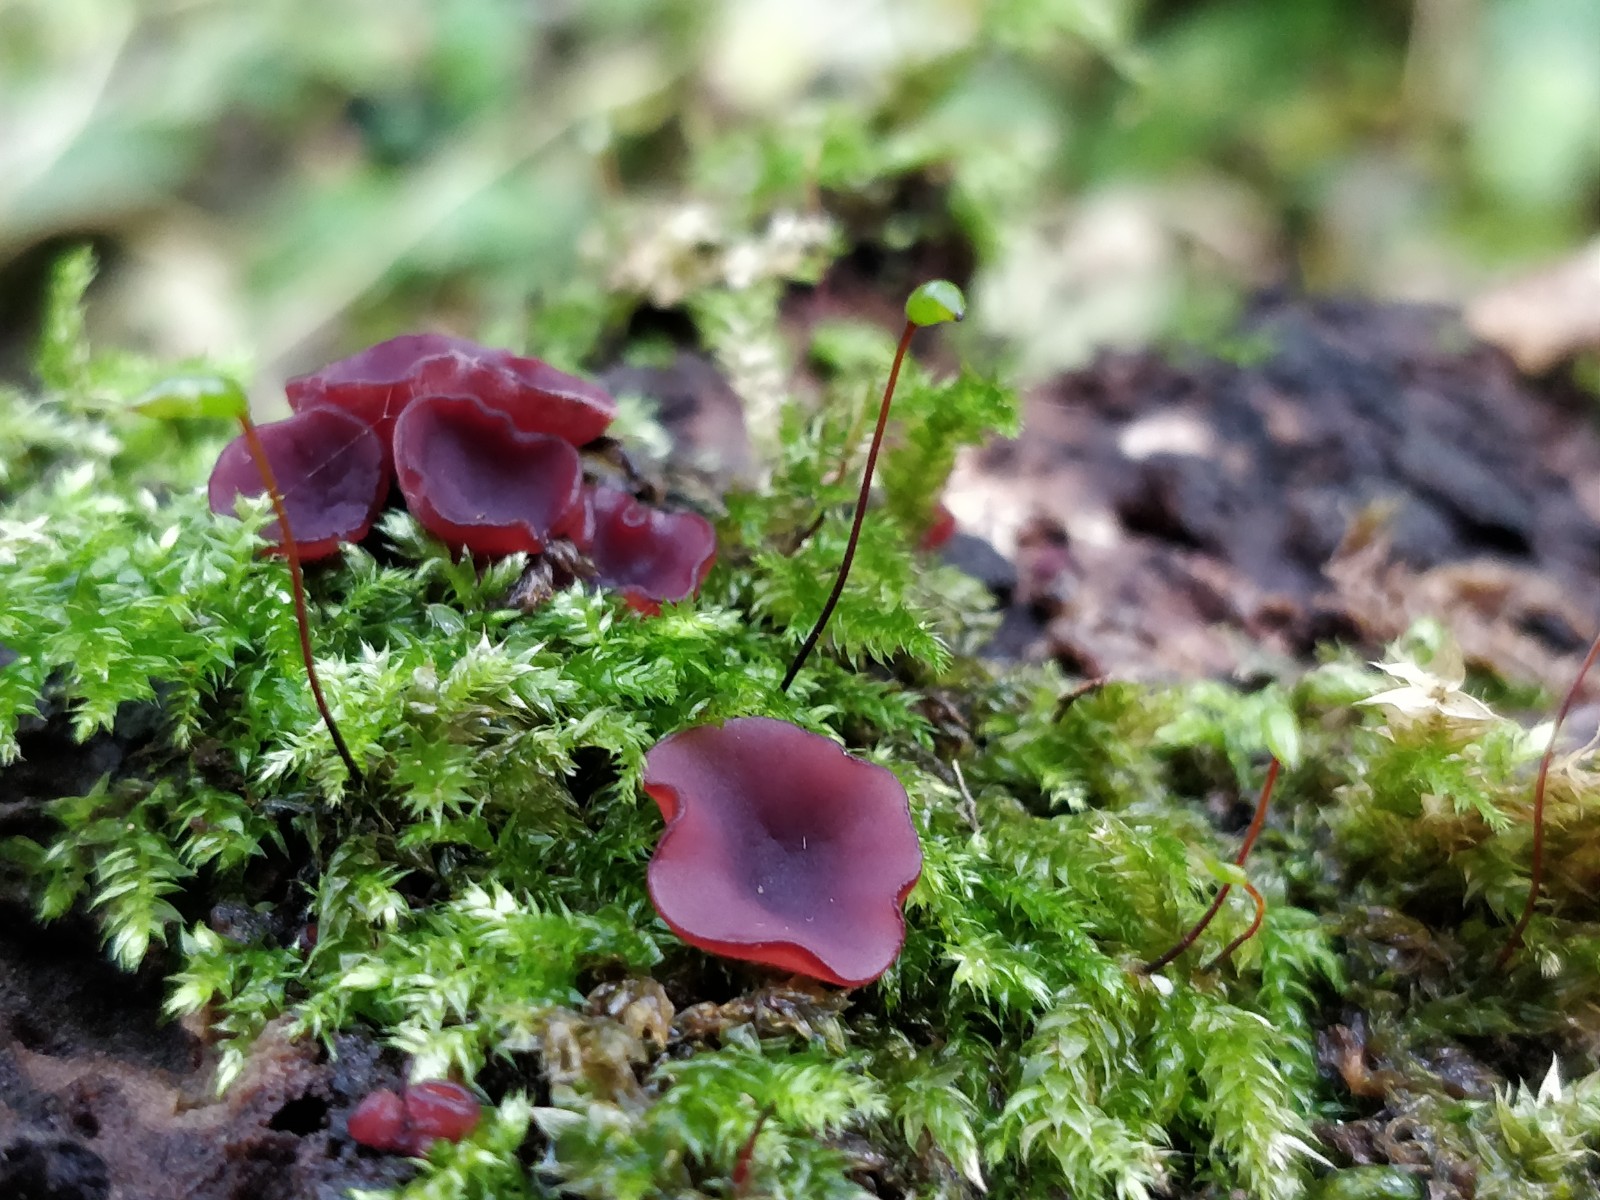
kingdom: Fungi
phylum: Ascomycota
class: Leotiomycetes
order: Helotiales
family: Gelatinodiscaceae
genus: Ascocoryne
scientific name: Ascocoryne cylichnium
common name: stor sejskive
